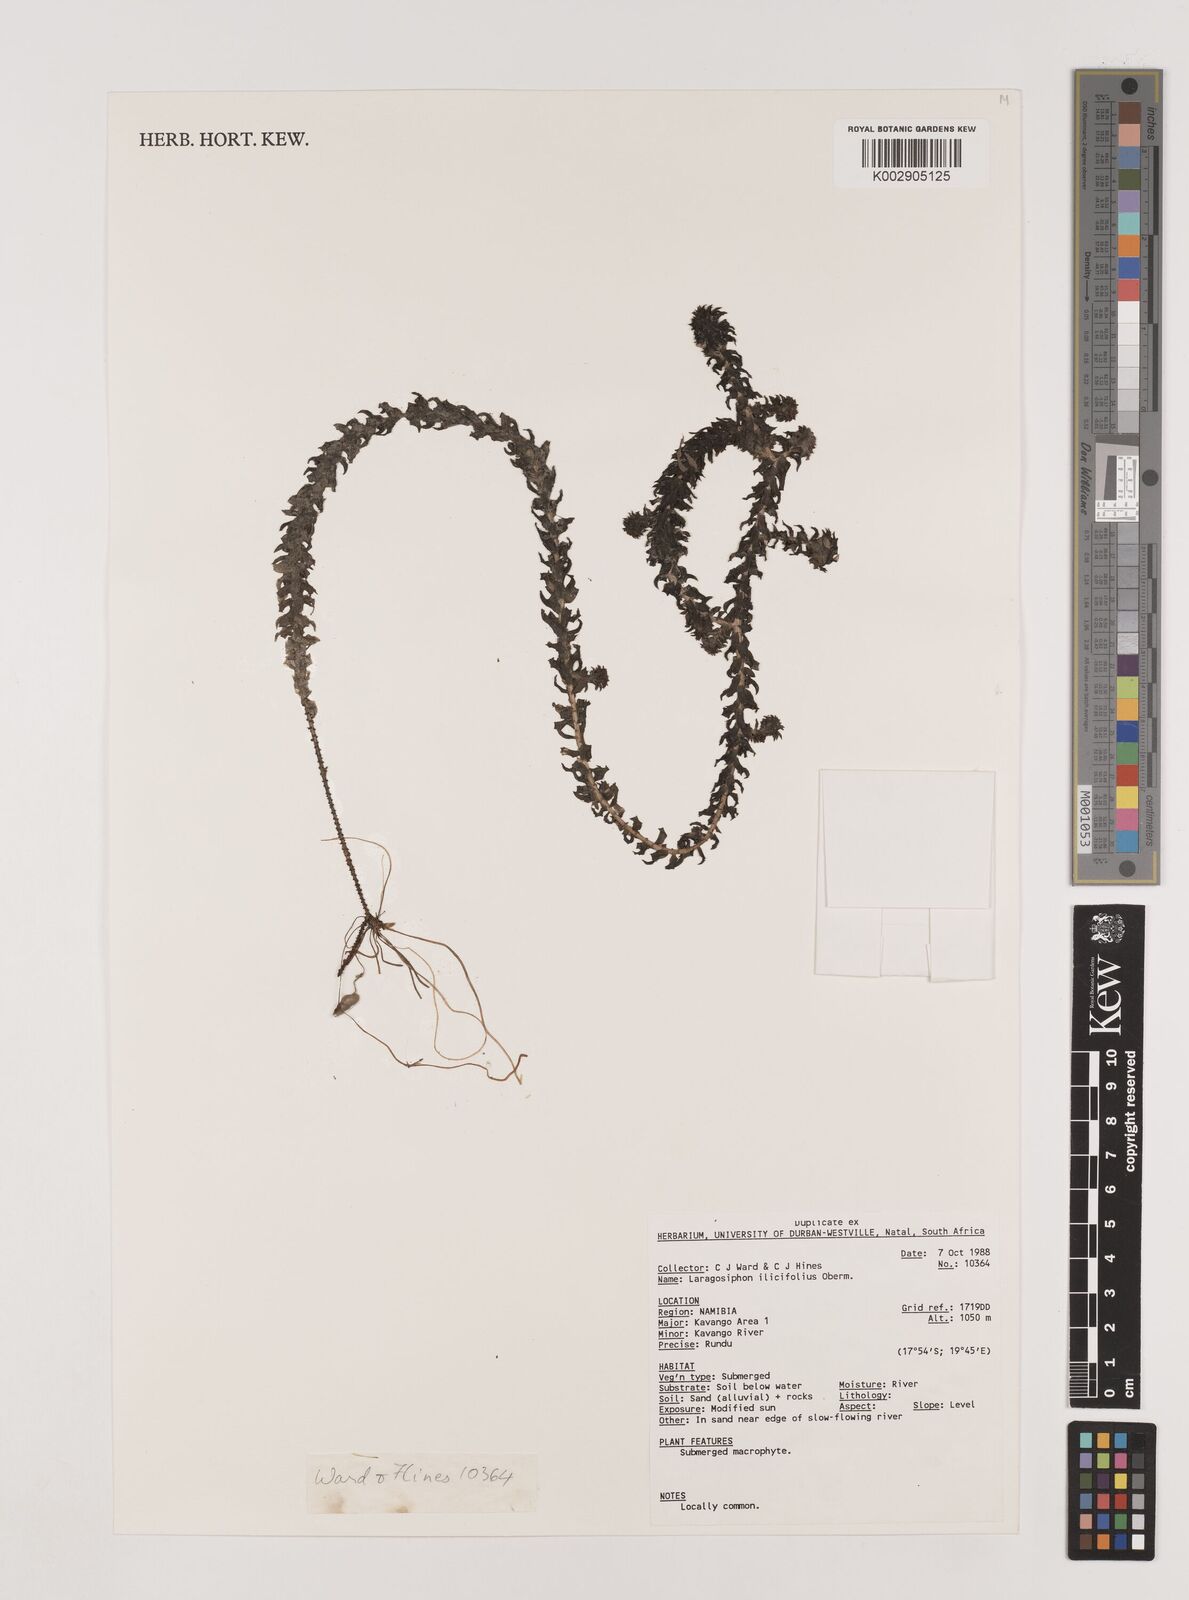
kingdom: Plantae
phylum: Tracheophyta
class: Liliopsida
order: Alismatales
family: Hydrocharitaceae
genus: Lagarosiphon
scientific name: Lagarosiphon major
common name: Curly waterweed
